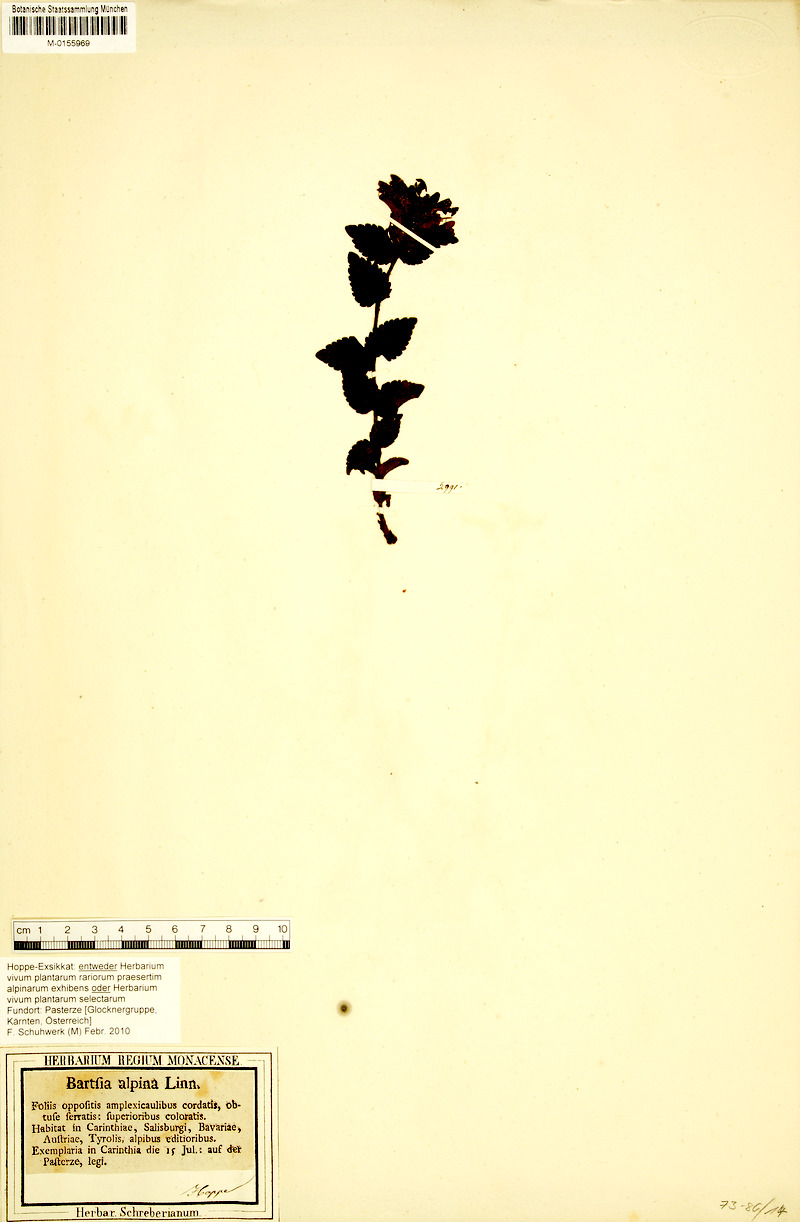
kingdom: Plantae
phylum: Tracheophyta
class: Magnoliopsida
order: Lamiales
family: Orobanchaceae
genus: Bartsia
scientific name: Bartsia alpina
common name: Alpine bartsia
